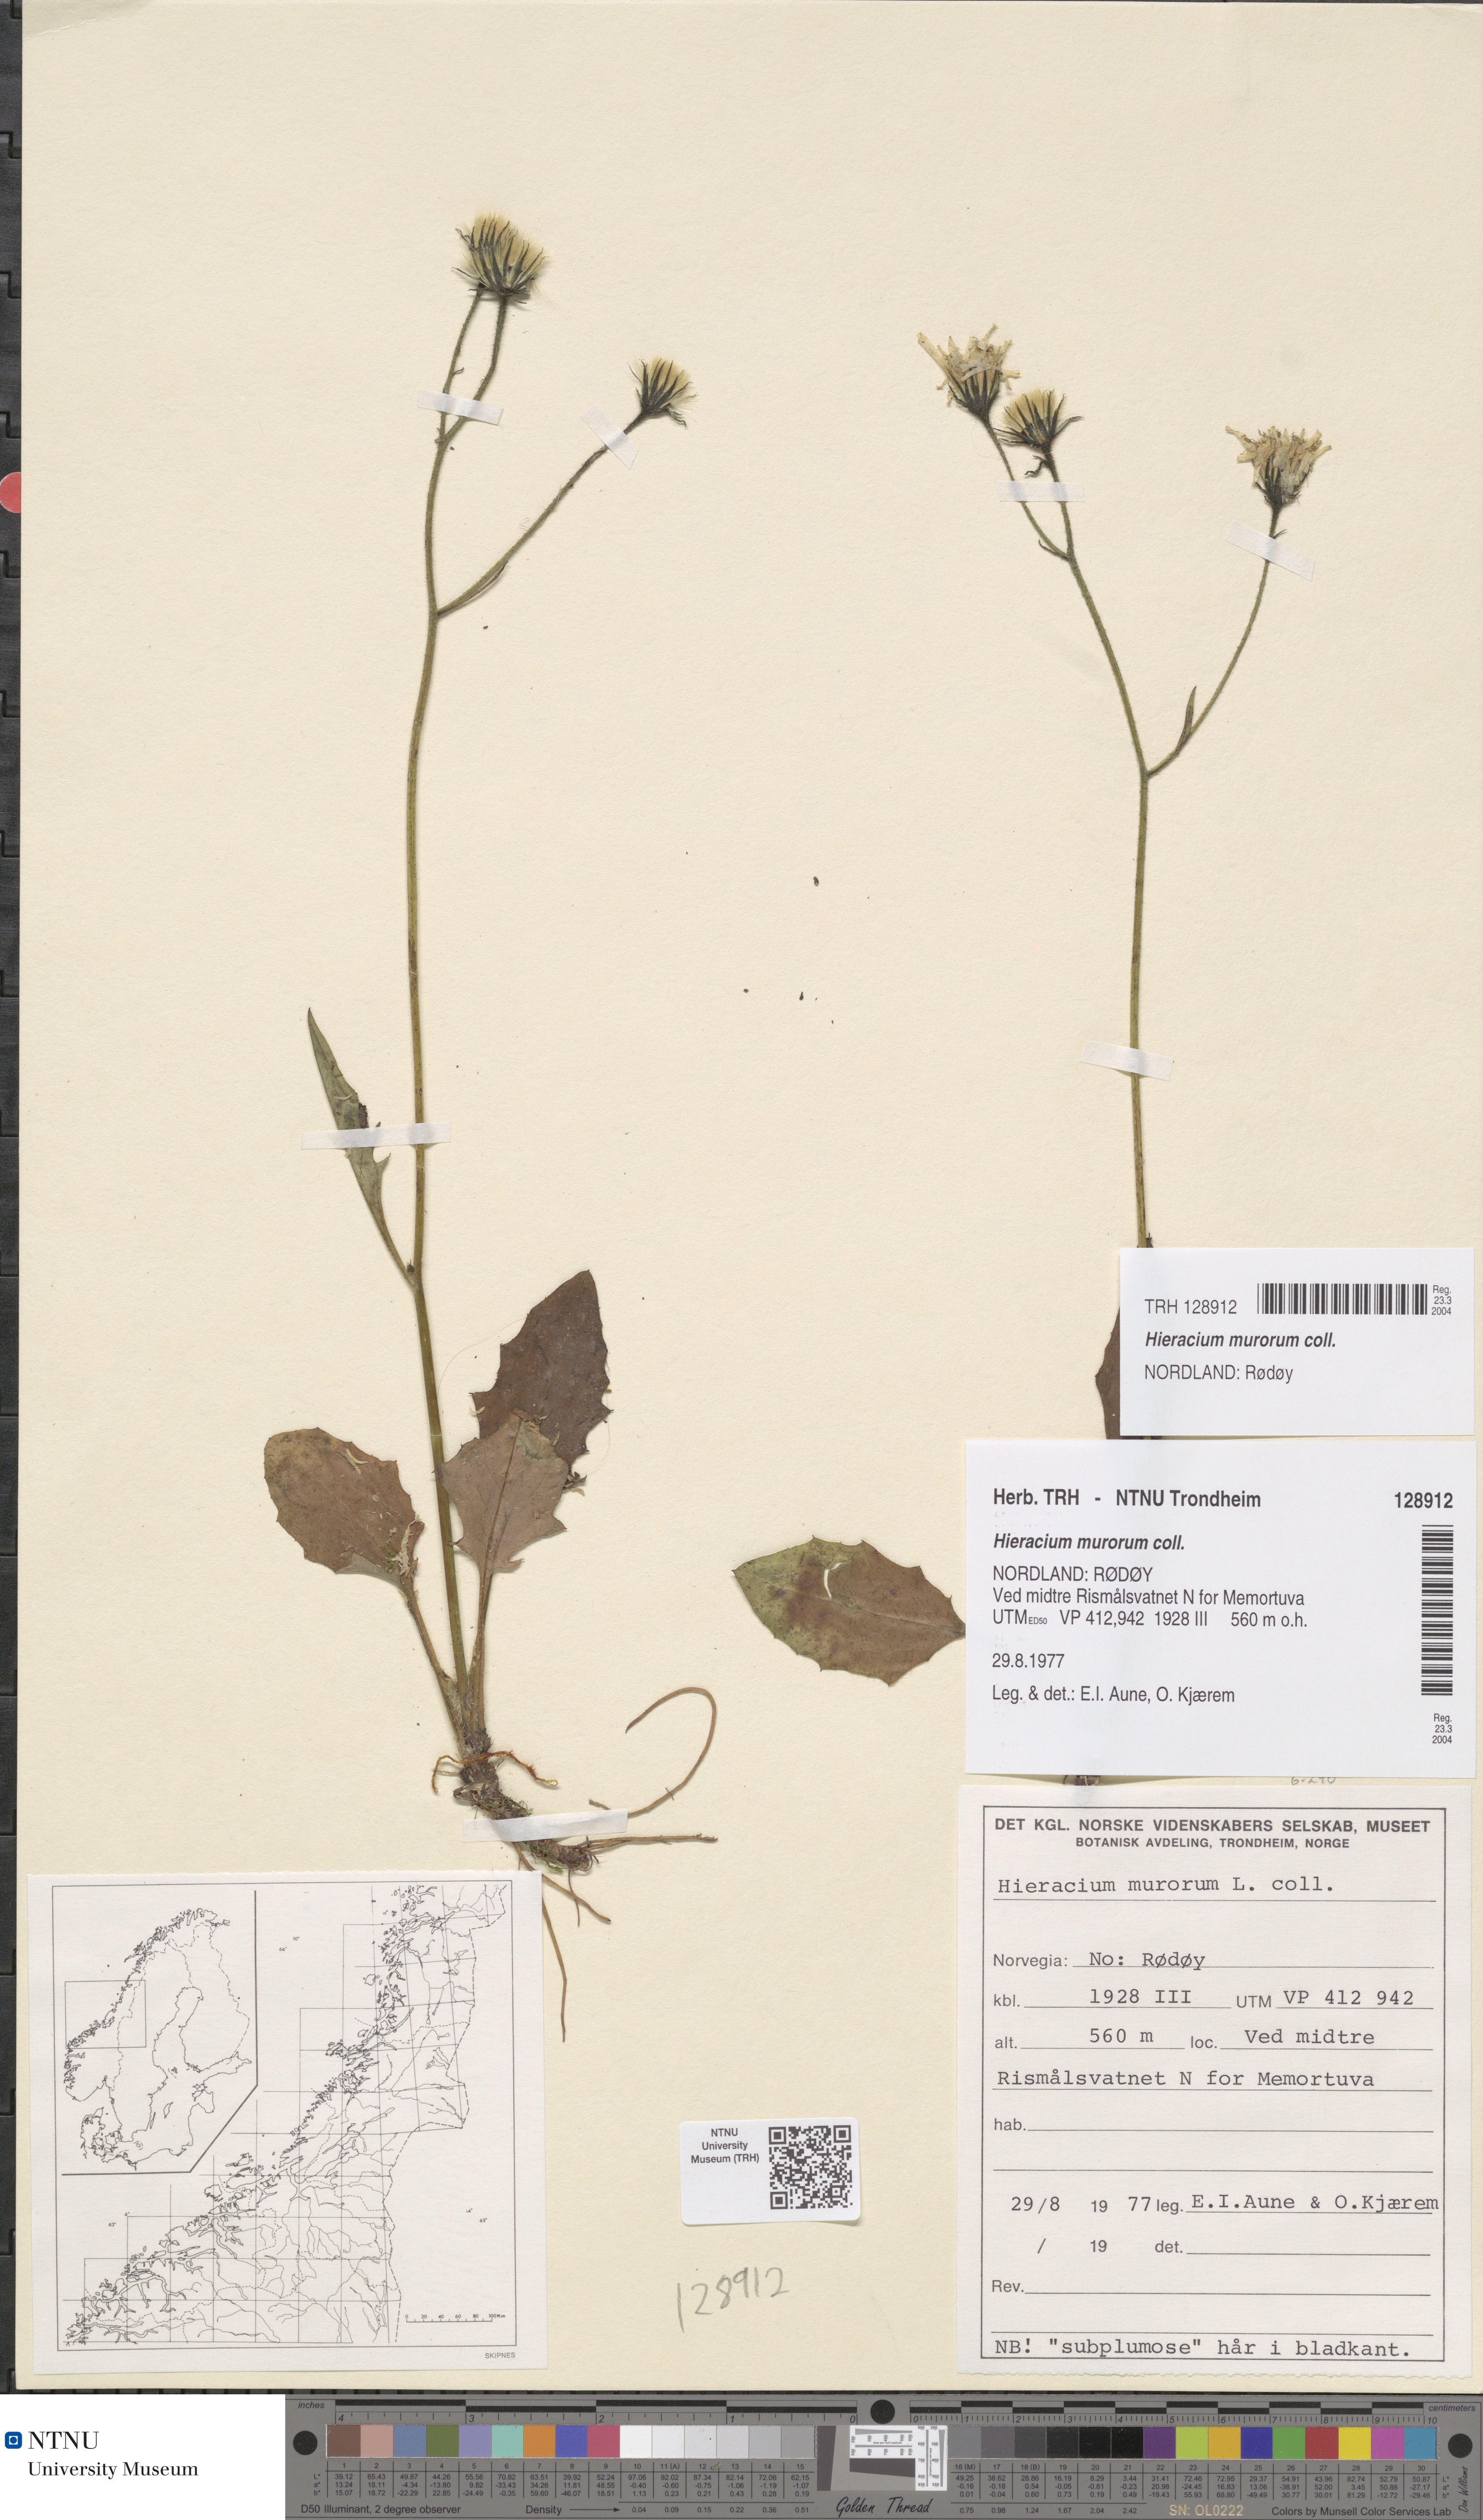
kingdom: Plantae
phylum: Tracheophyta
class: Magnoliopsida
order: Asterales
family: Asteraceae
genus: Hieracium
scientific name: Hieracium murorum
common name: Wall hawkweed
